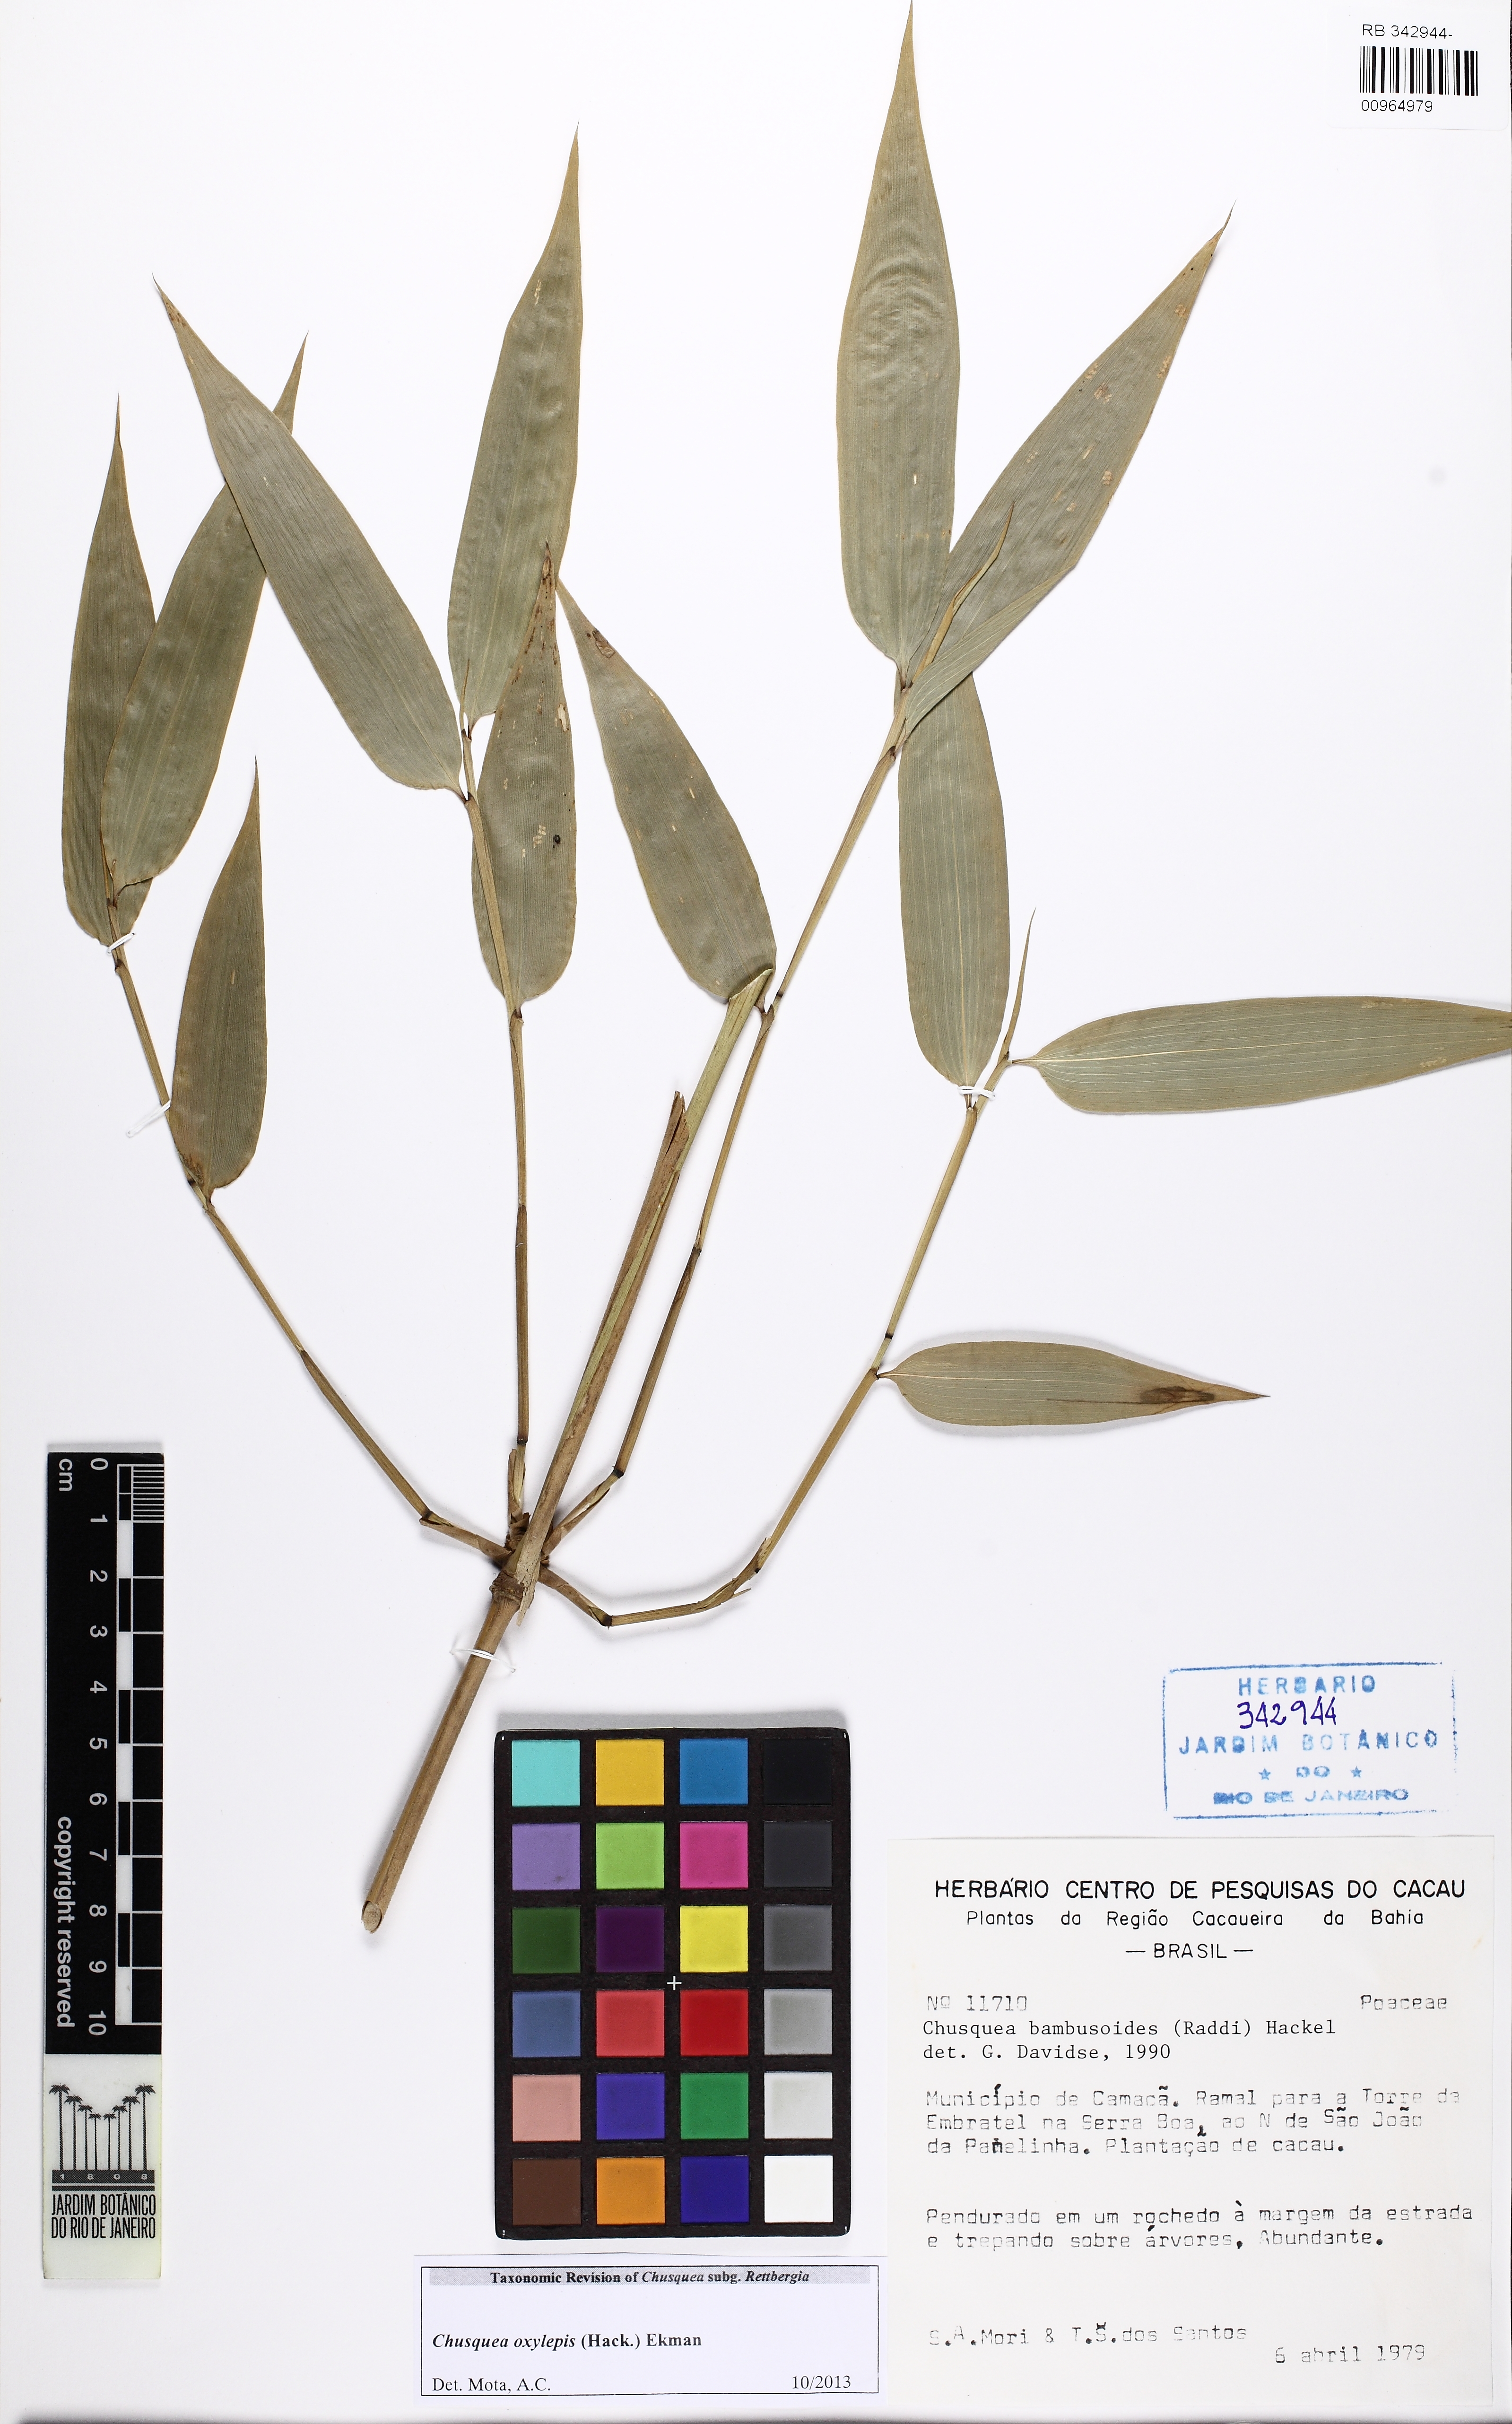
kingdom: Plantae
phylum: Tracheophyta
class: Liliopsida
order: Poales
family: Poaceae
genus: Chusquea
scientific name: Chusquea oxylepis
